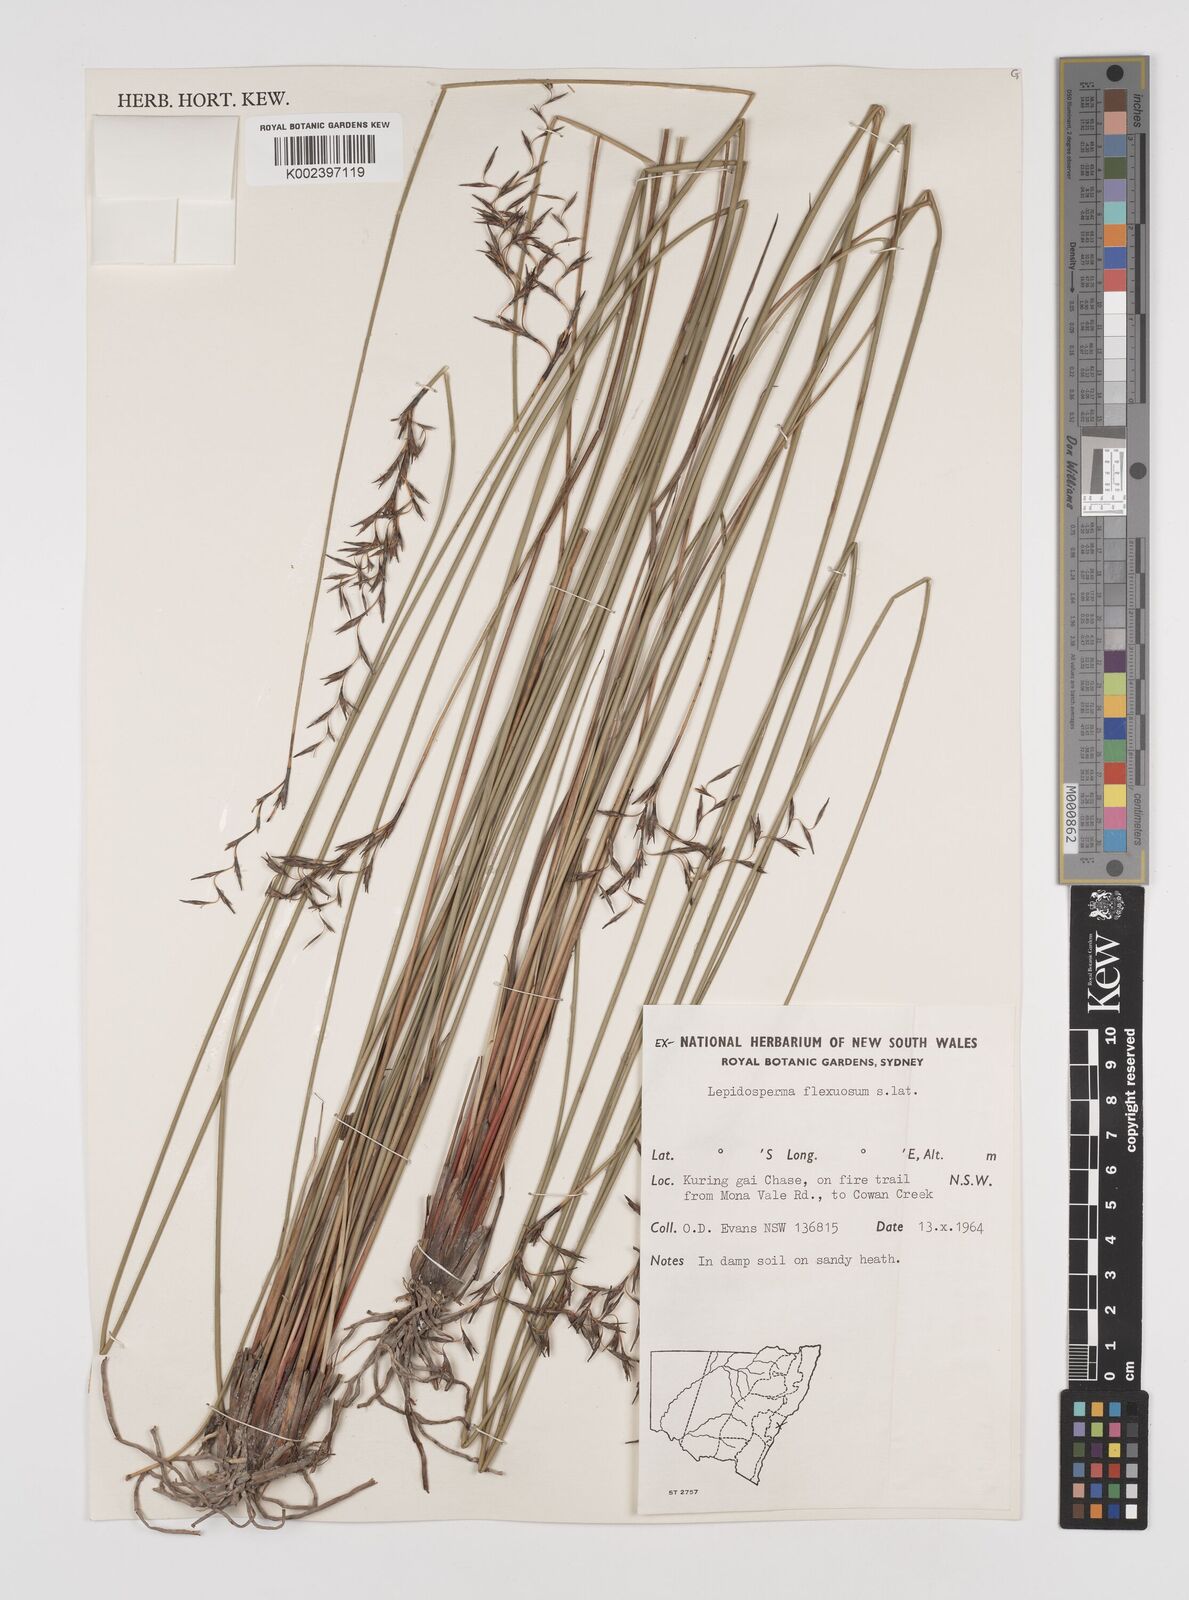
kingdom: Plantae
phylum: Tracheophyta
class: Liliopsida
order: Poales
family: Cyperaceae
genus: Lepidosperma
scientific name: Lepidosperma flexuosum
